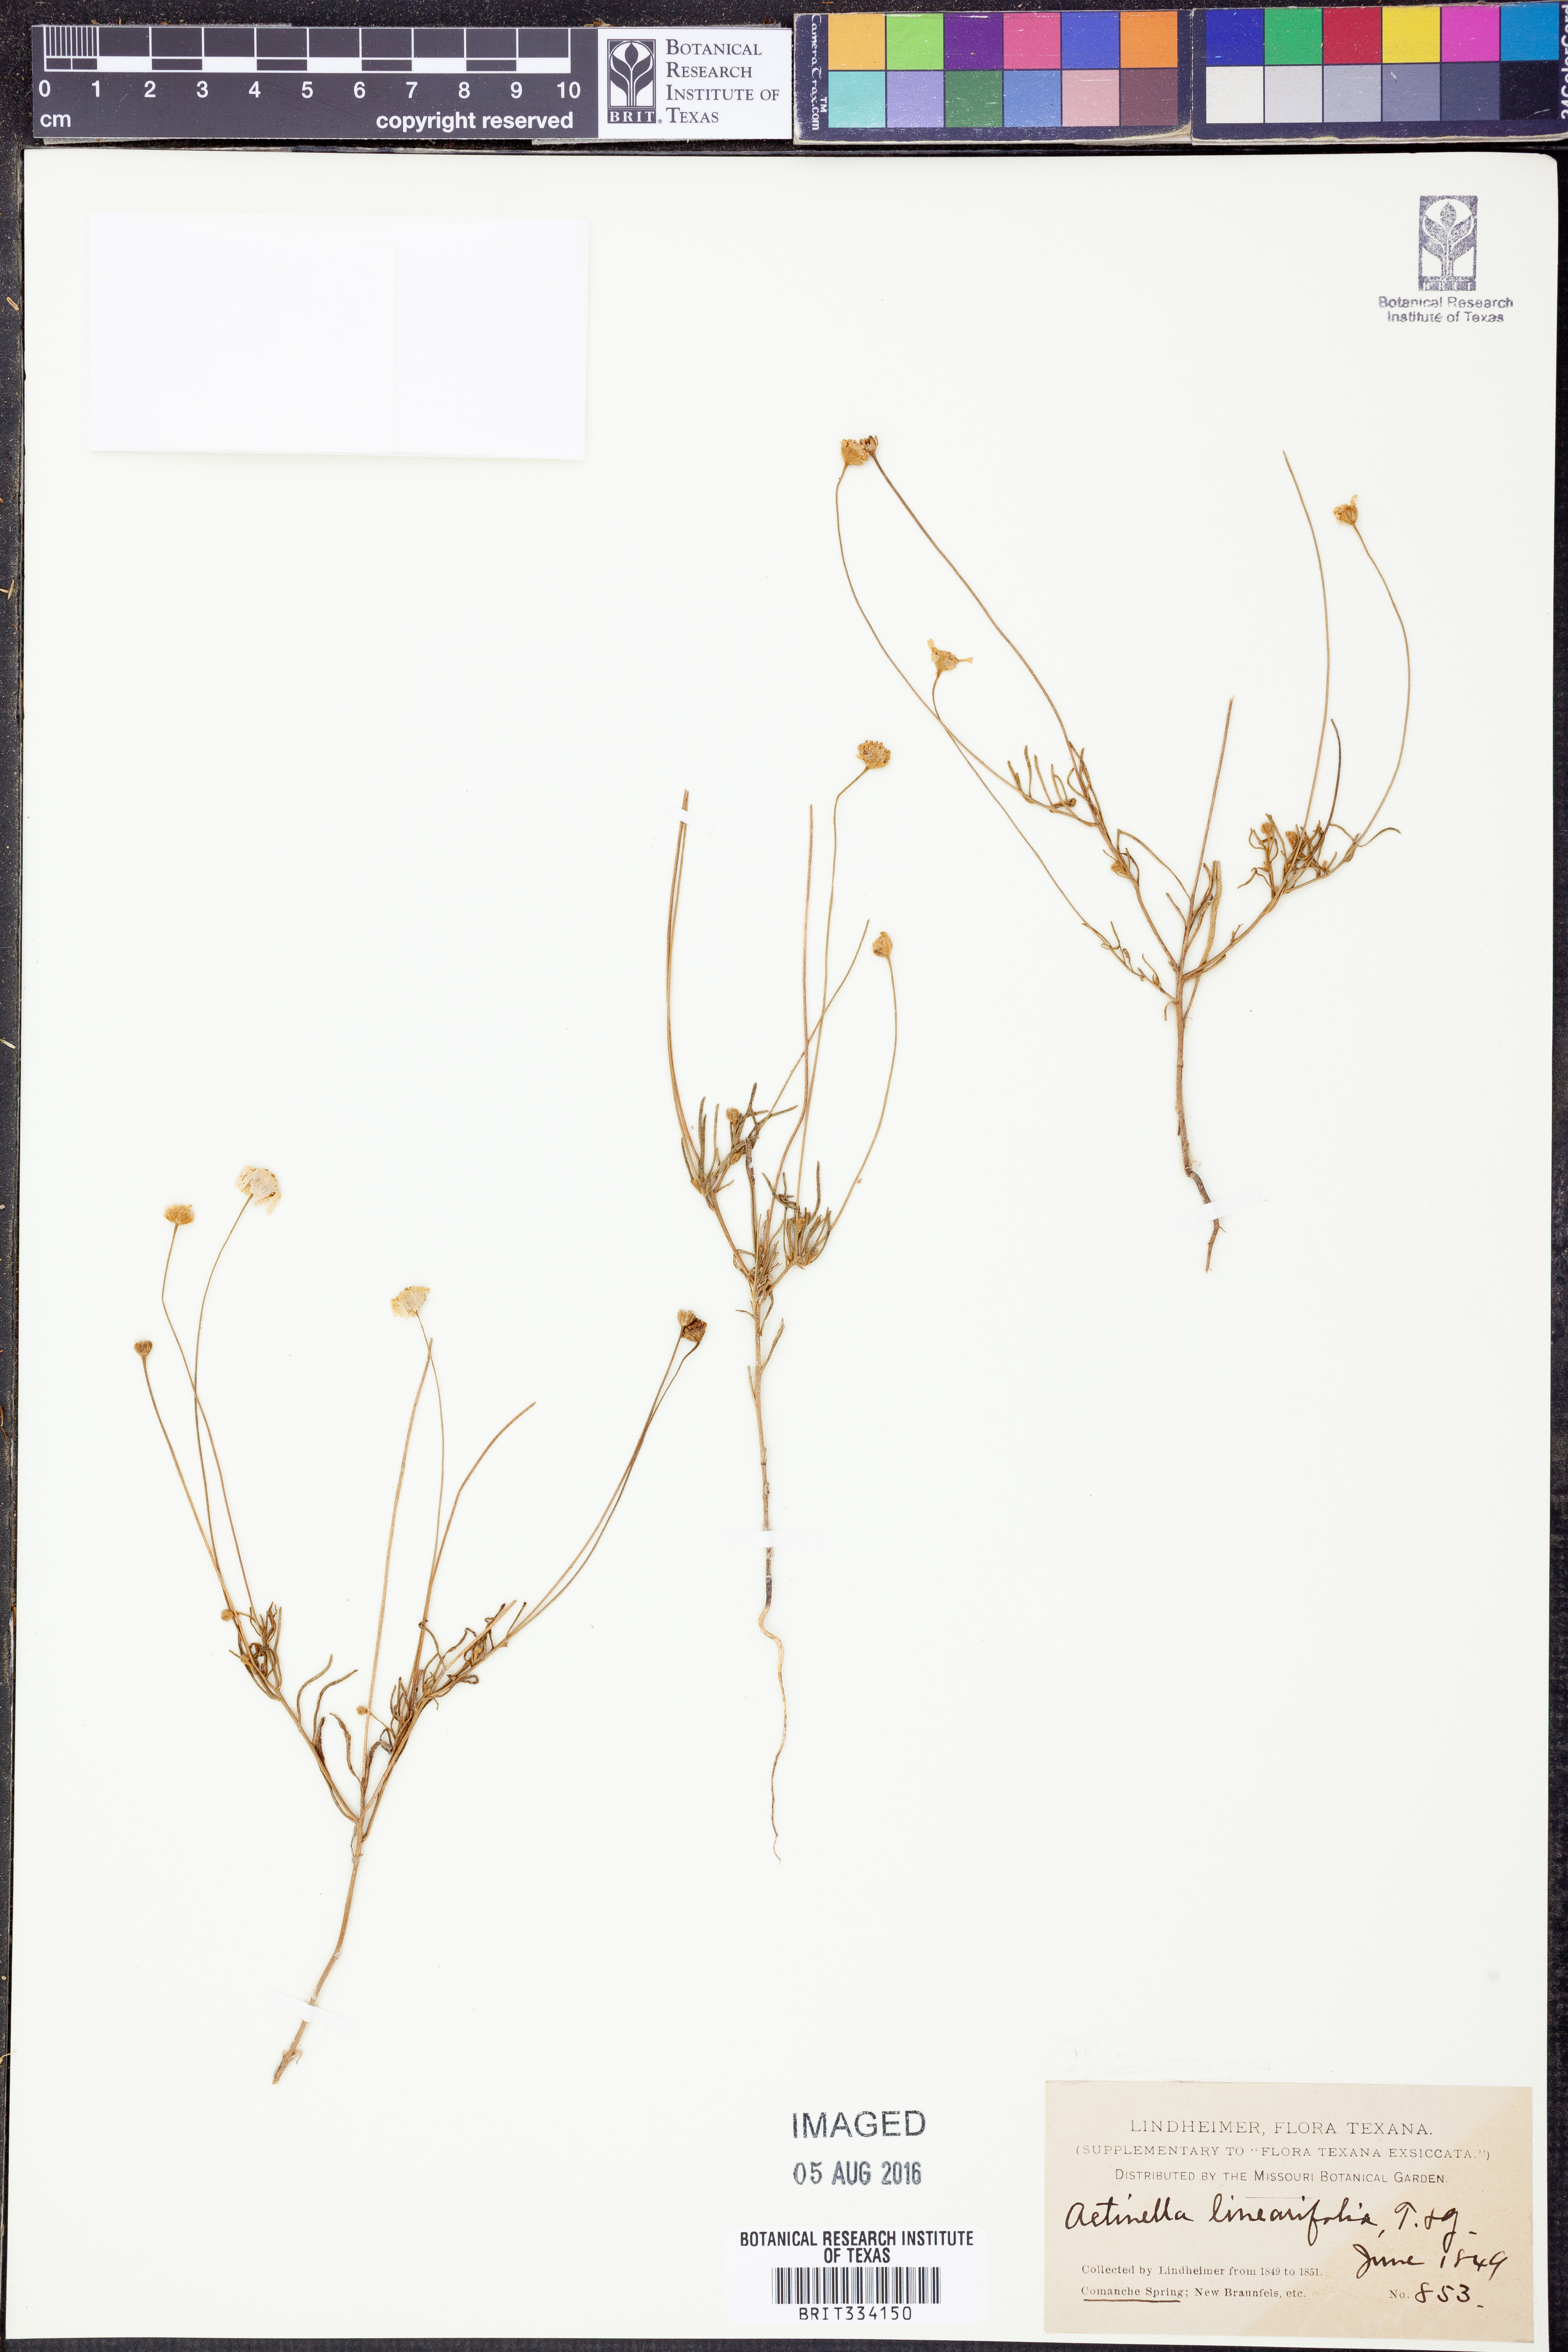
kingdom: Plantae
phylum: Tracheophyta
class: Magnoliopsida
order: Asterales
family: Asteraceae
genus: Tetraneuris
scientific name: Tetraneuris linearifolia
